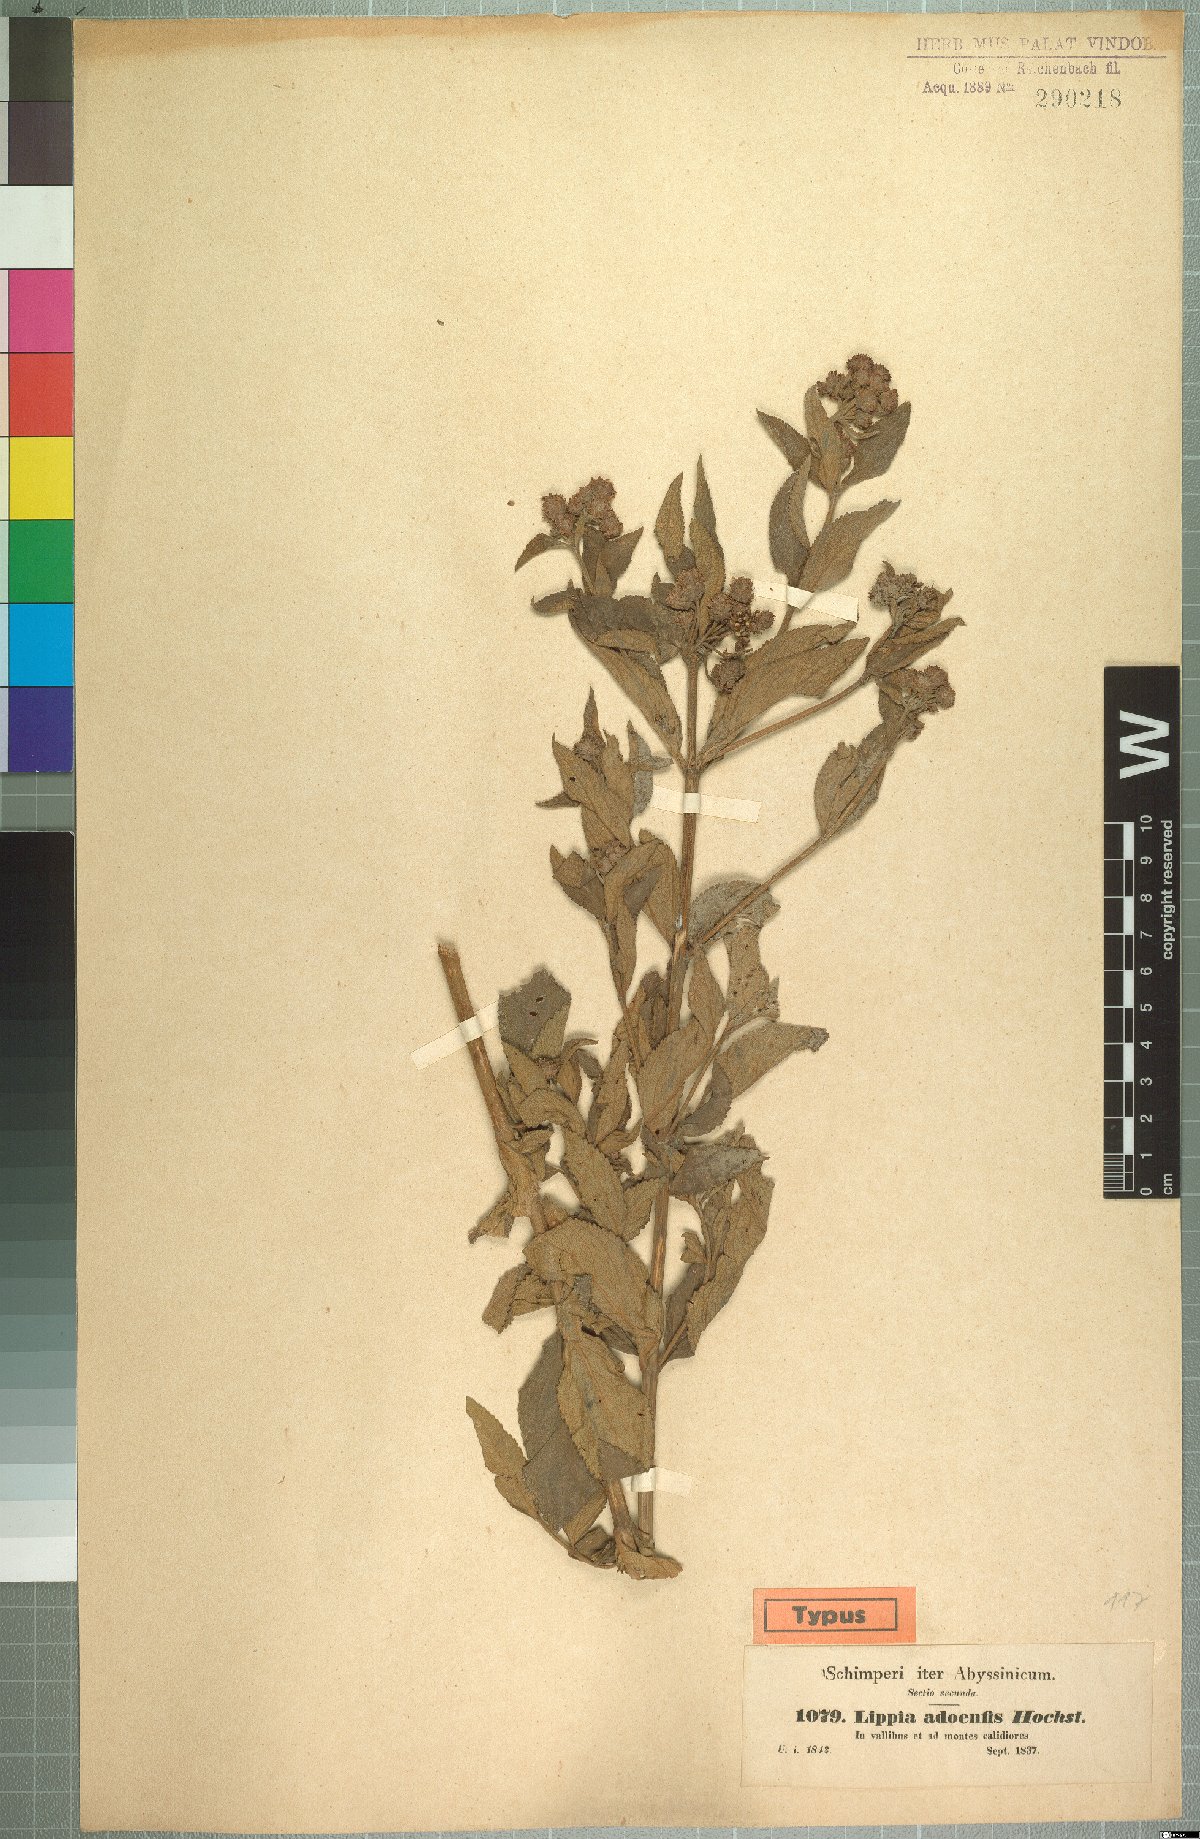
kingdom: Plantae
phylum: Tracheophyta
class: Magnoliopsida
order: Lamiales
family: Verbenaceae
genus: Lippia
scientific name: Lippia abyssinica
